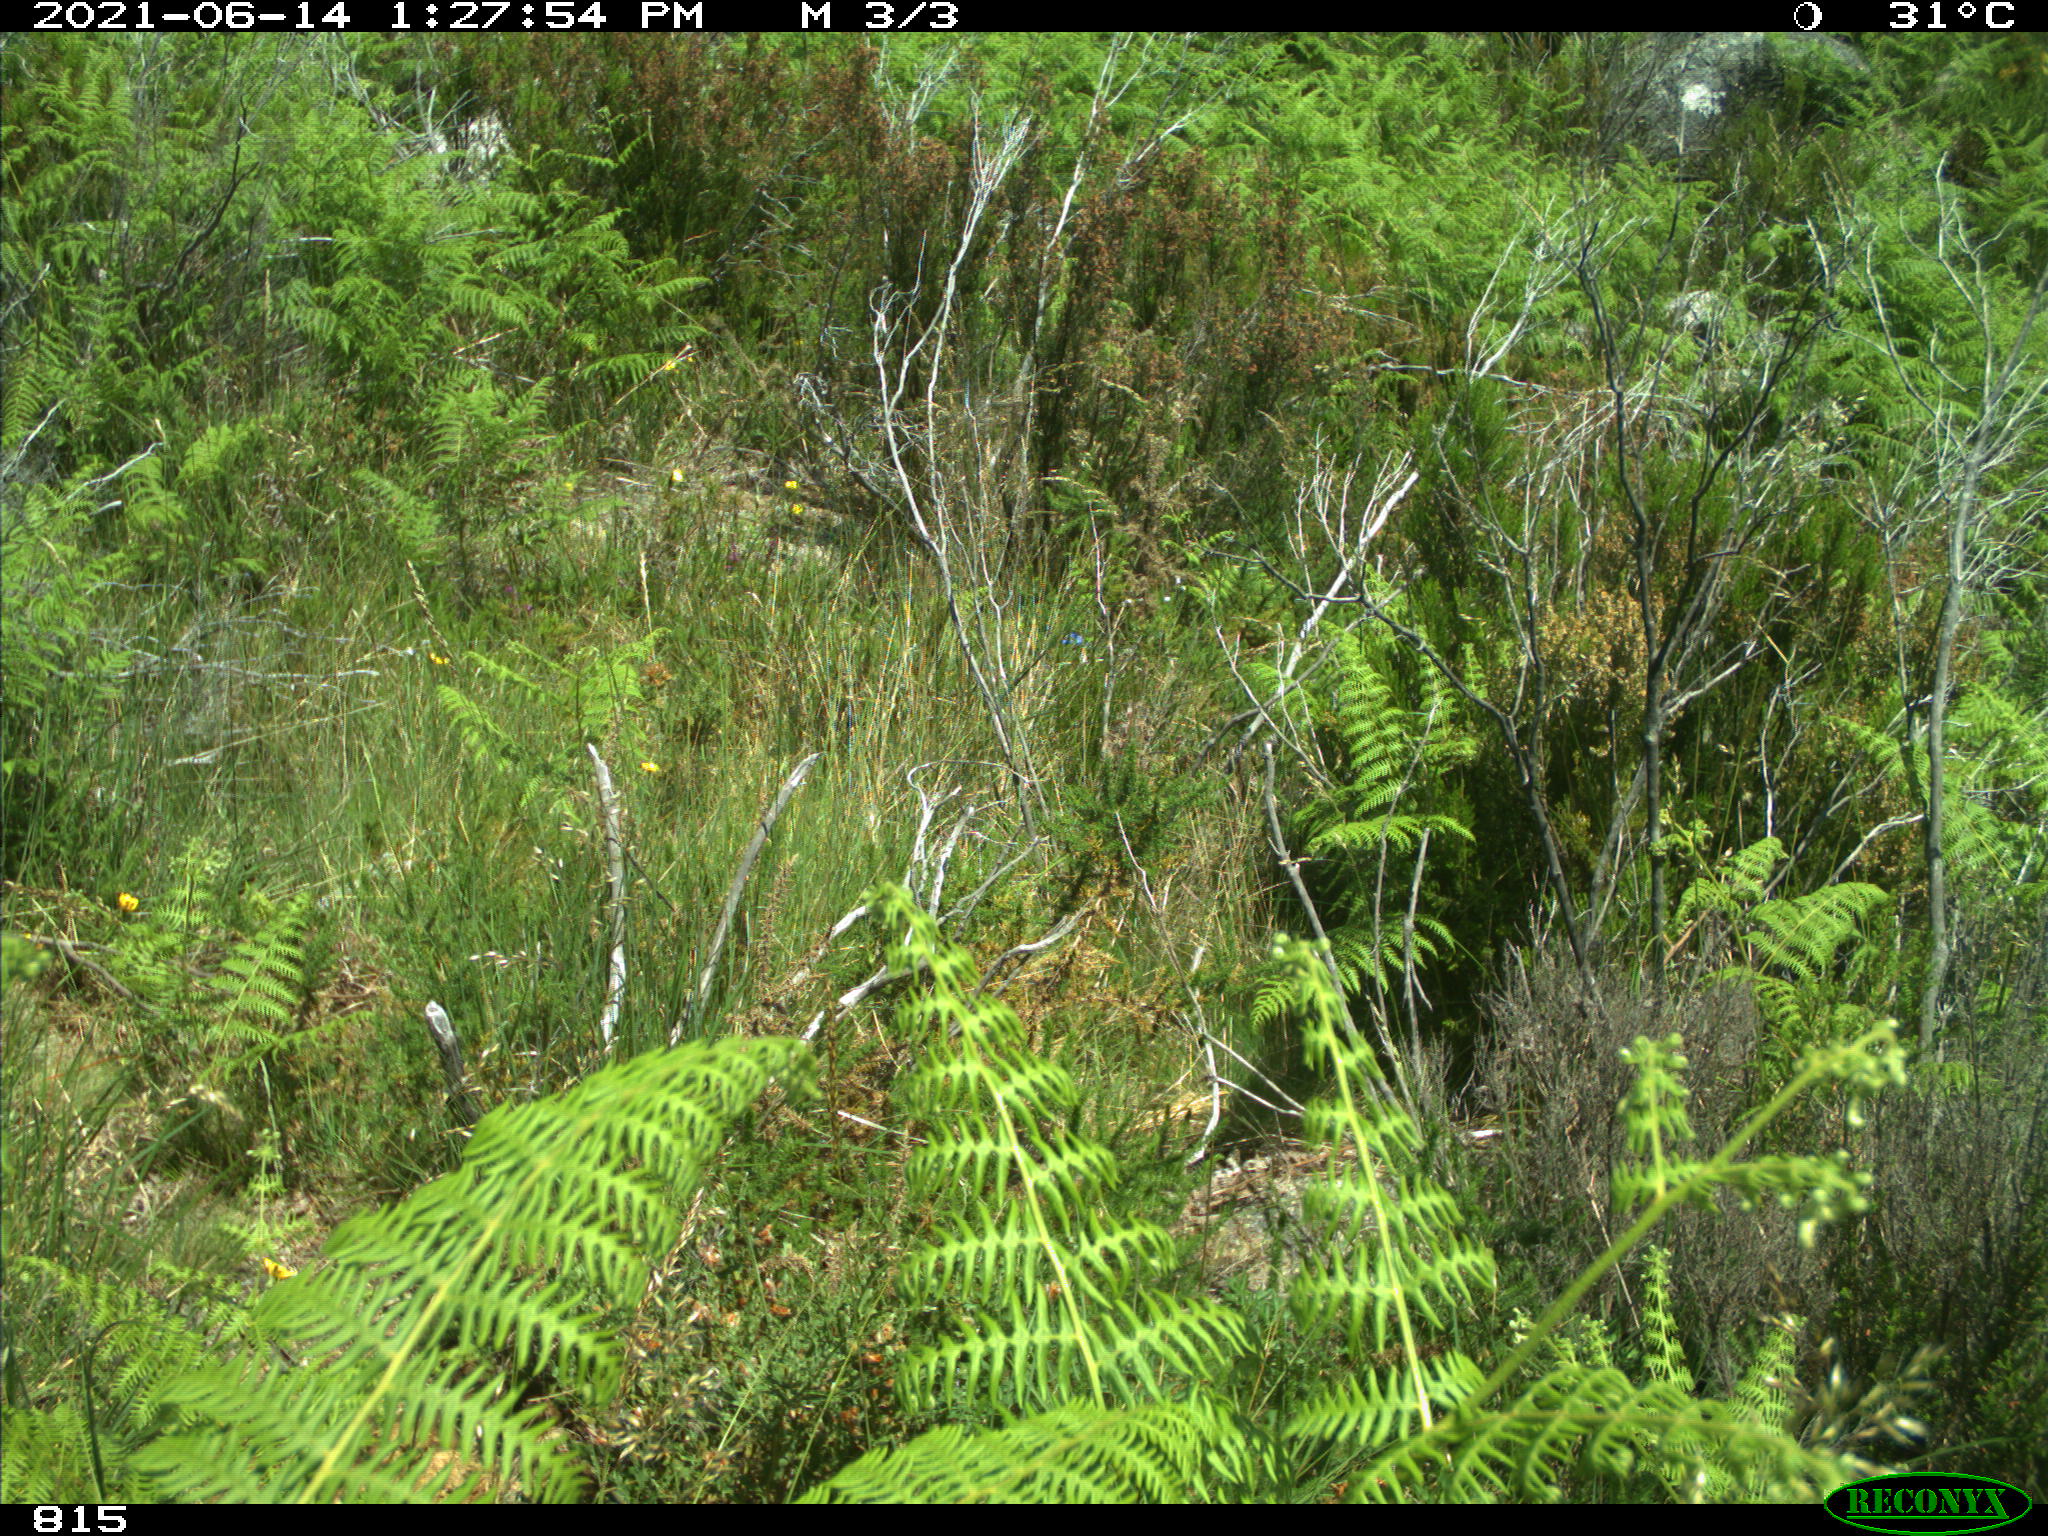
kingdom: Animalia
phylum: Chordata
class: Mammalia
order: Artiodactyla
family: Cervidae
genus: Capreolus
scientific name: Capreolus capreolus
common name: Western roe deer
